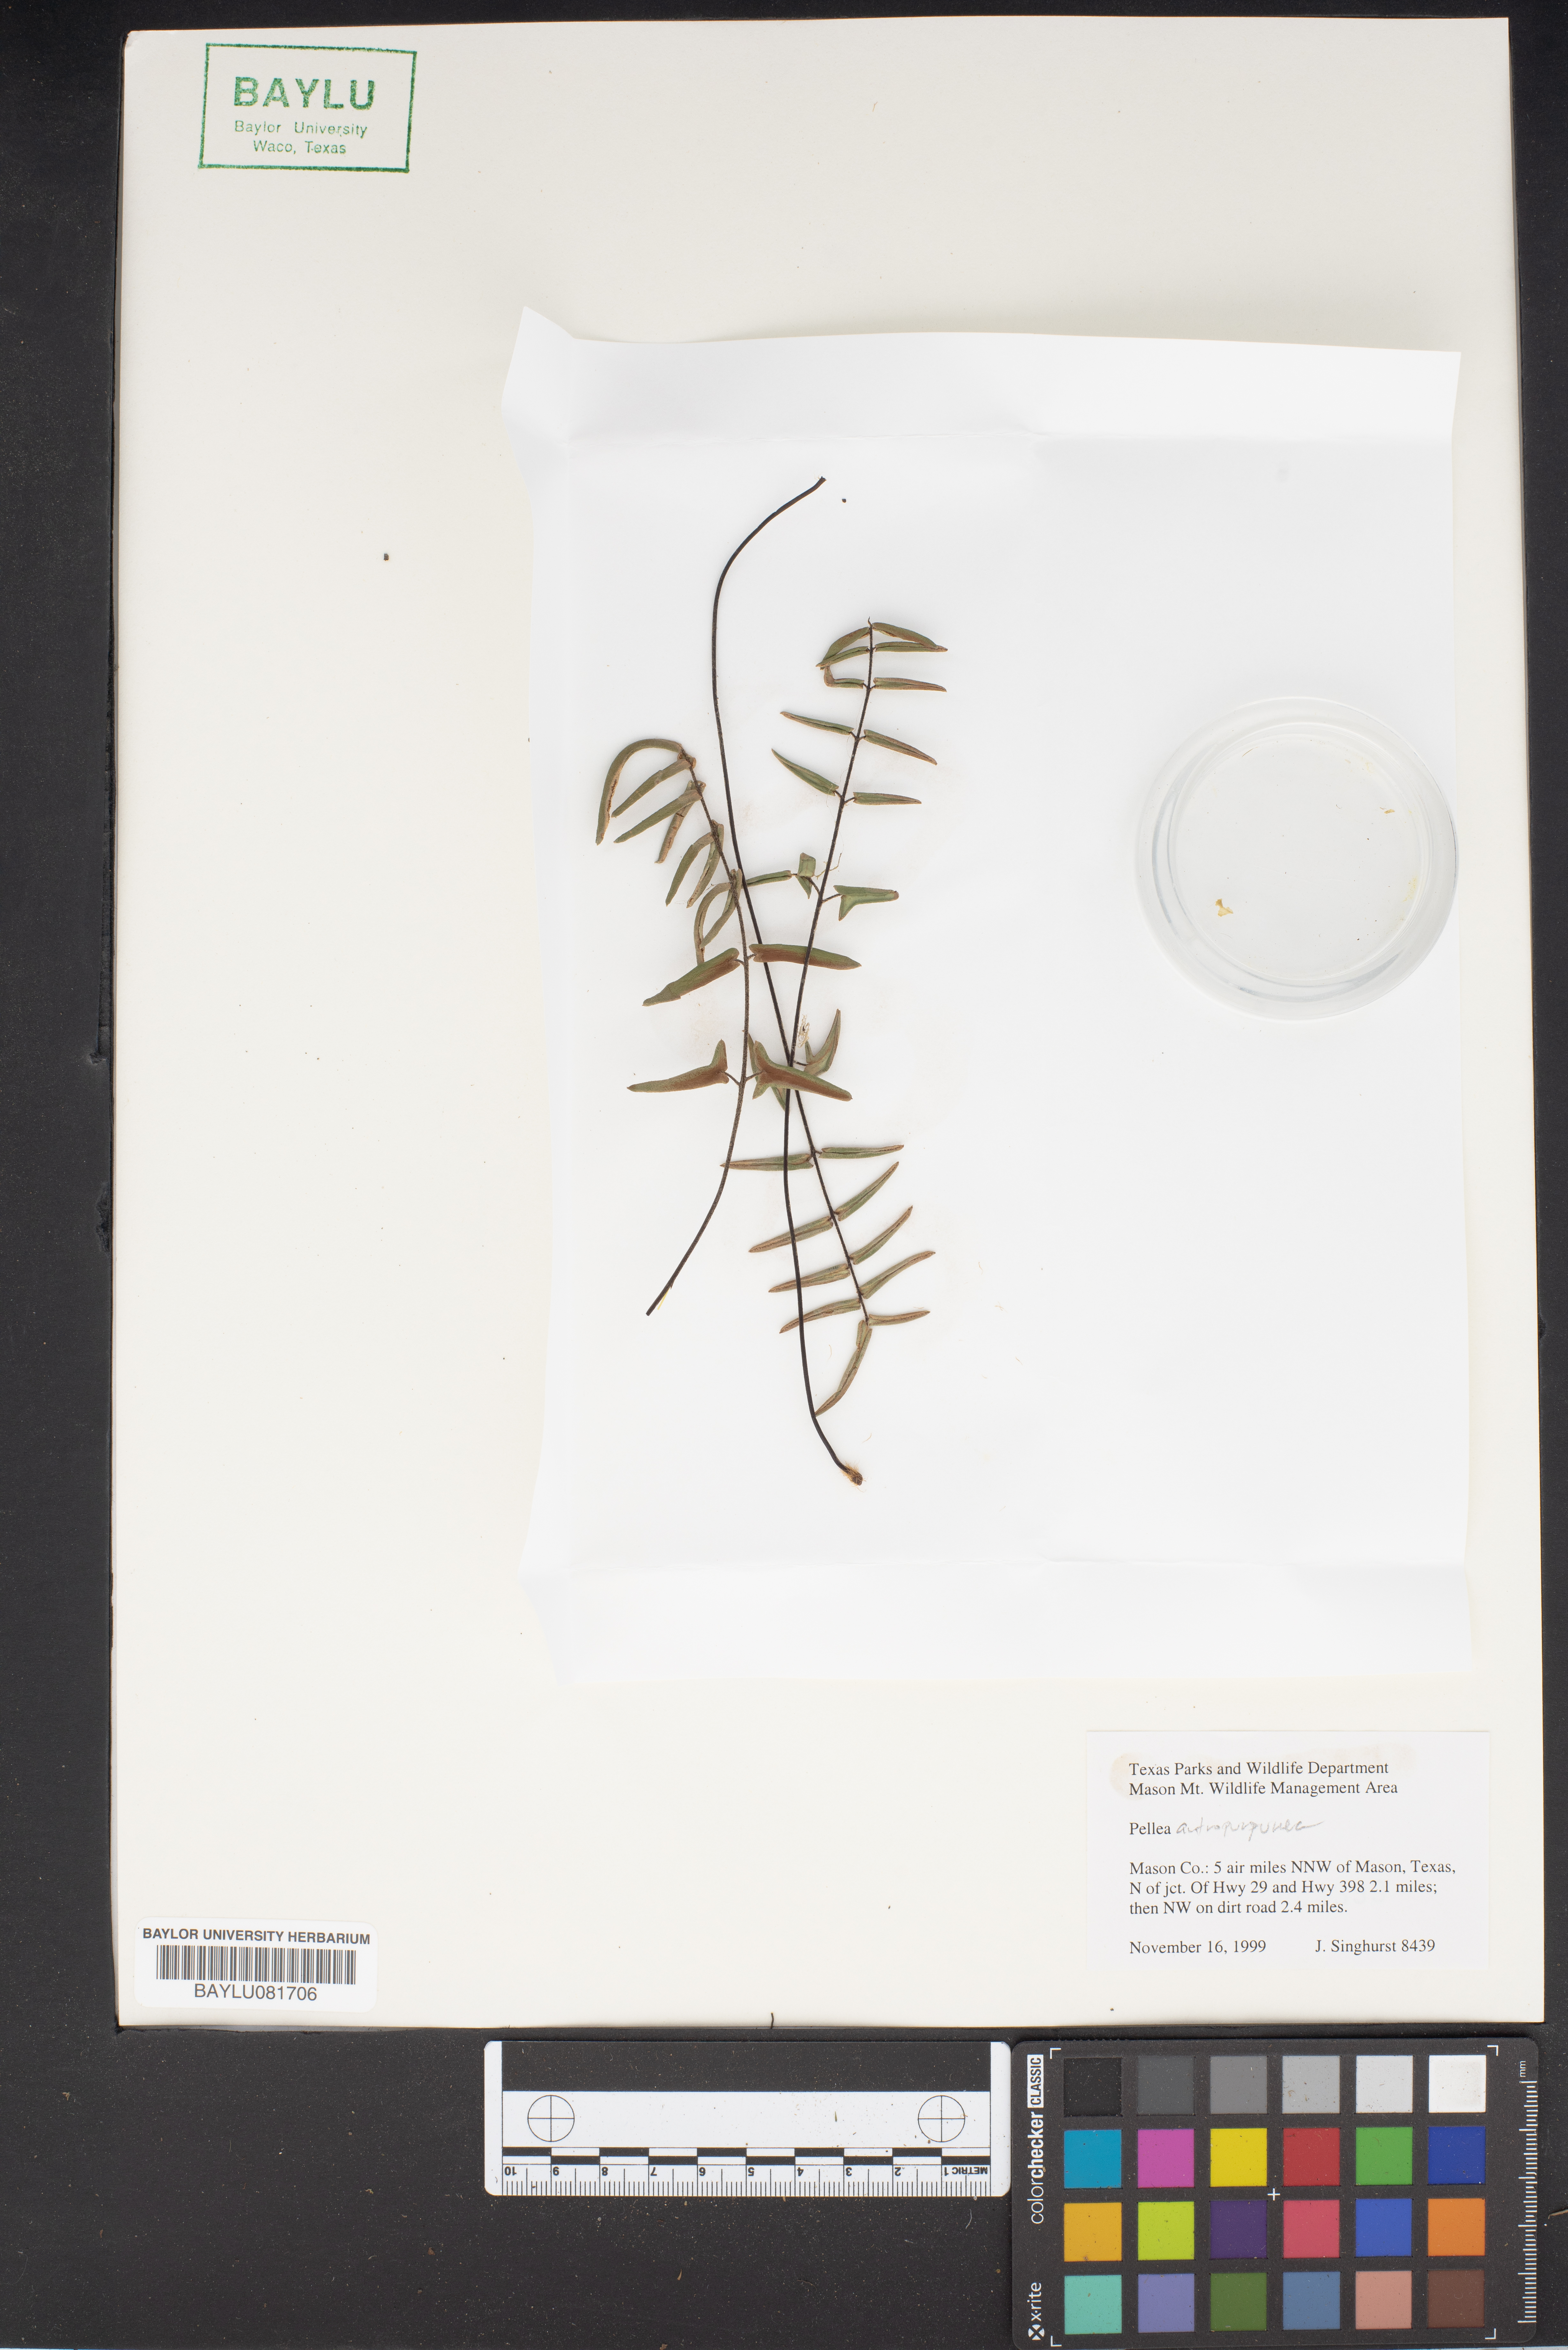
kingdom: Plantae
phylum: Tracheophyta
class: Polypodiopsida
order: Polypodiales
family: Pteridaceae
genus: Pellaea
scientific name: Pellaea atropurpurea
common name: Hairy cliffbrake
